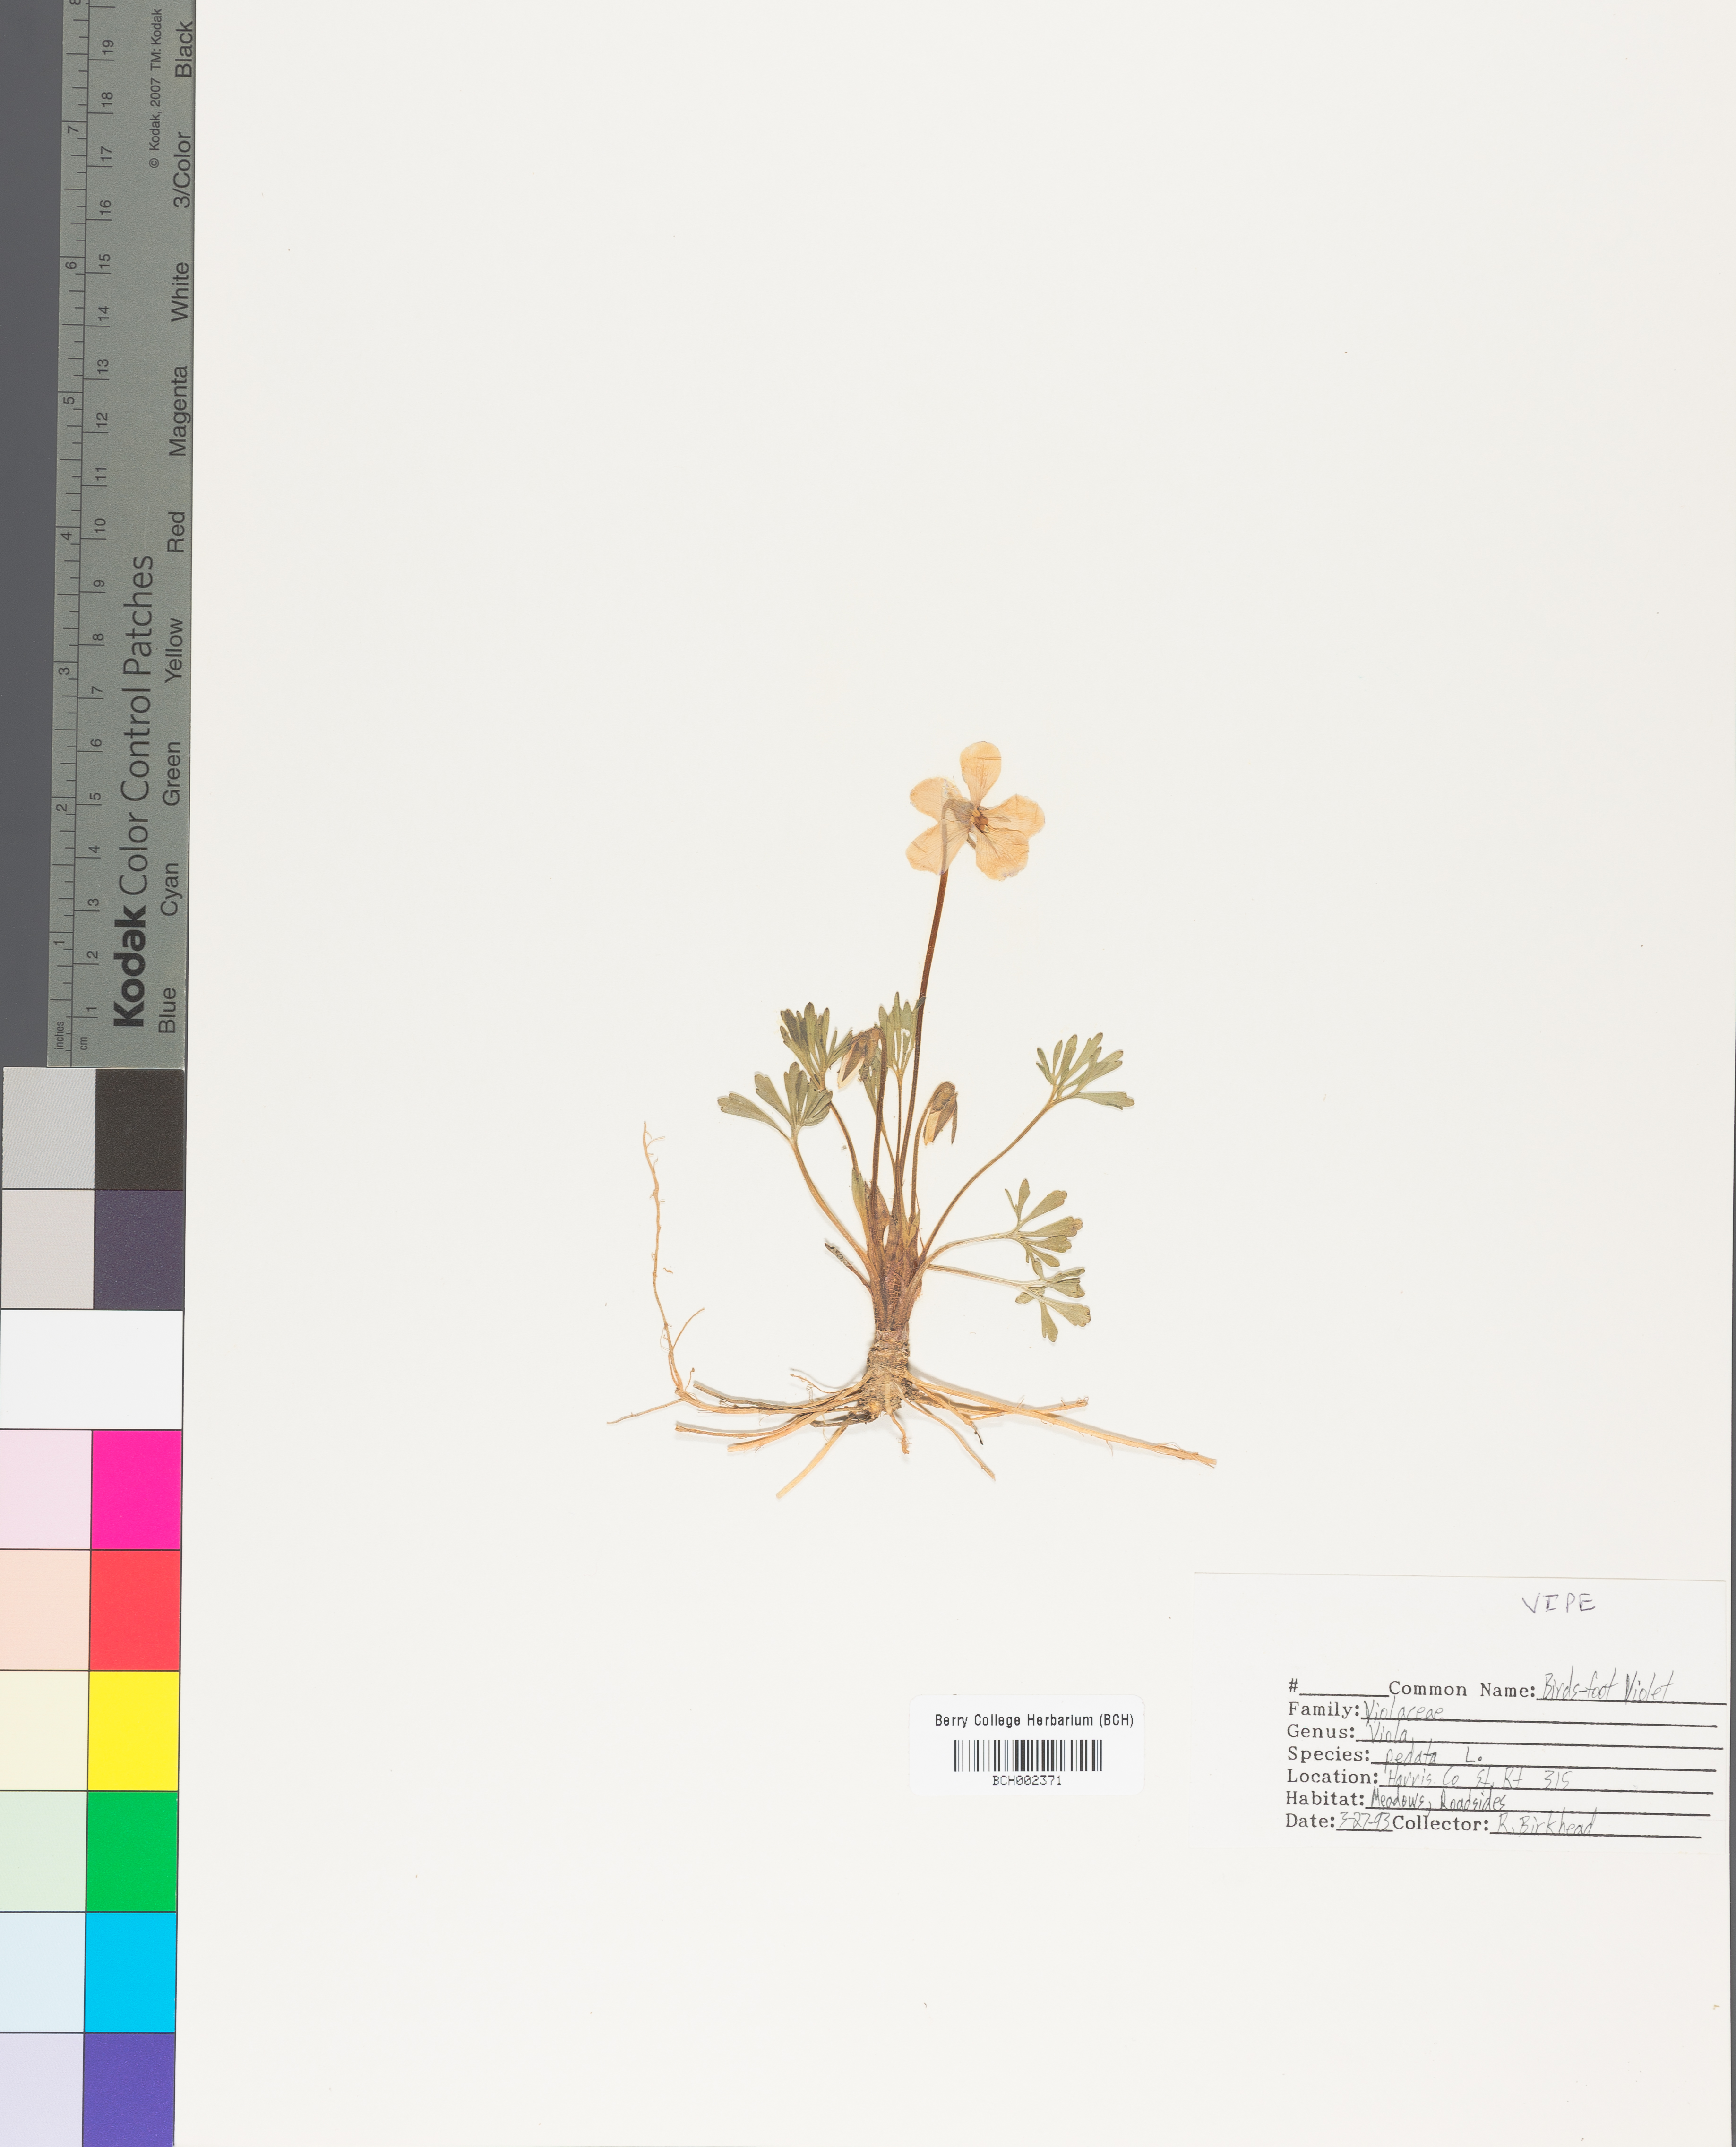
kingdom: Plantae
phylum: Tracheophyta
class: Magnoliopsida
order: Malpighiales
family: Violaceae
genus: Viola
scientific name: Viola pedata
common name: Pansy violet
